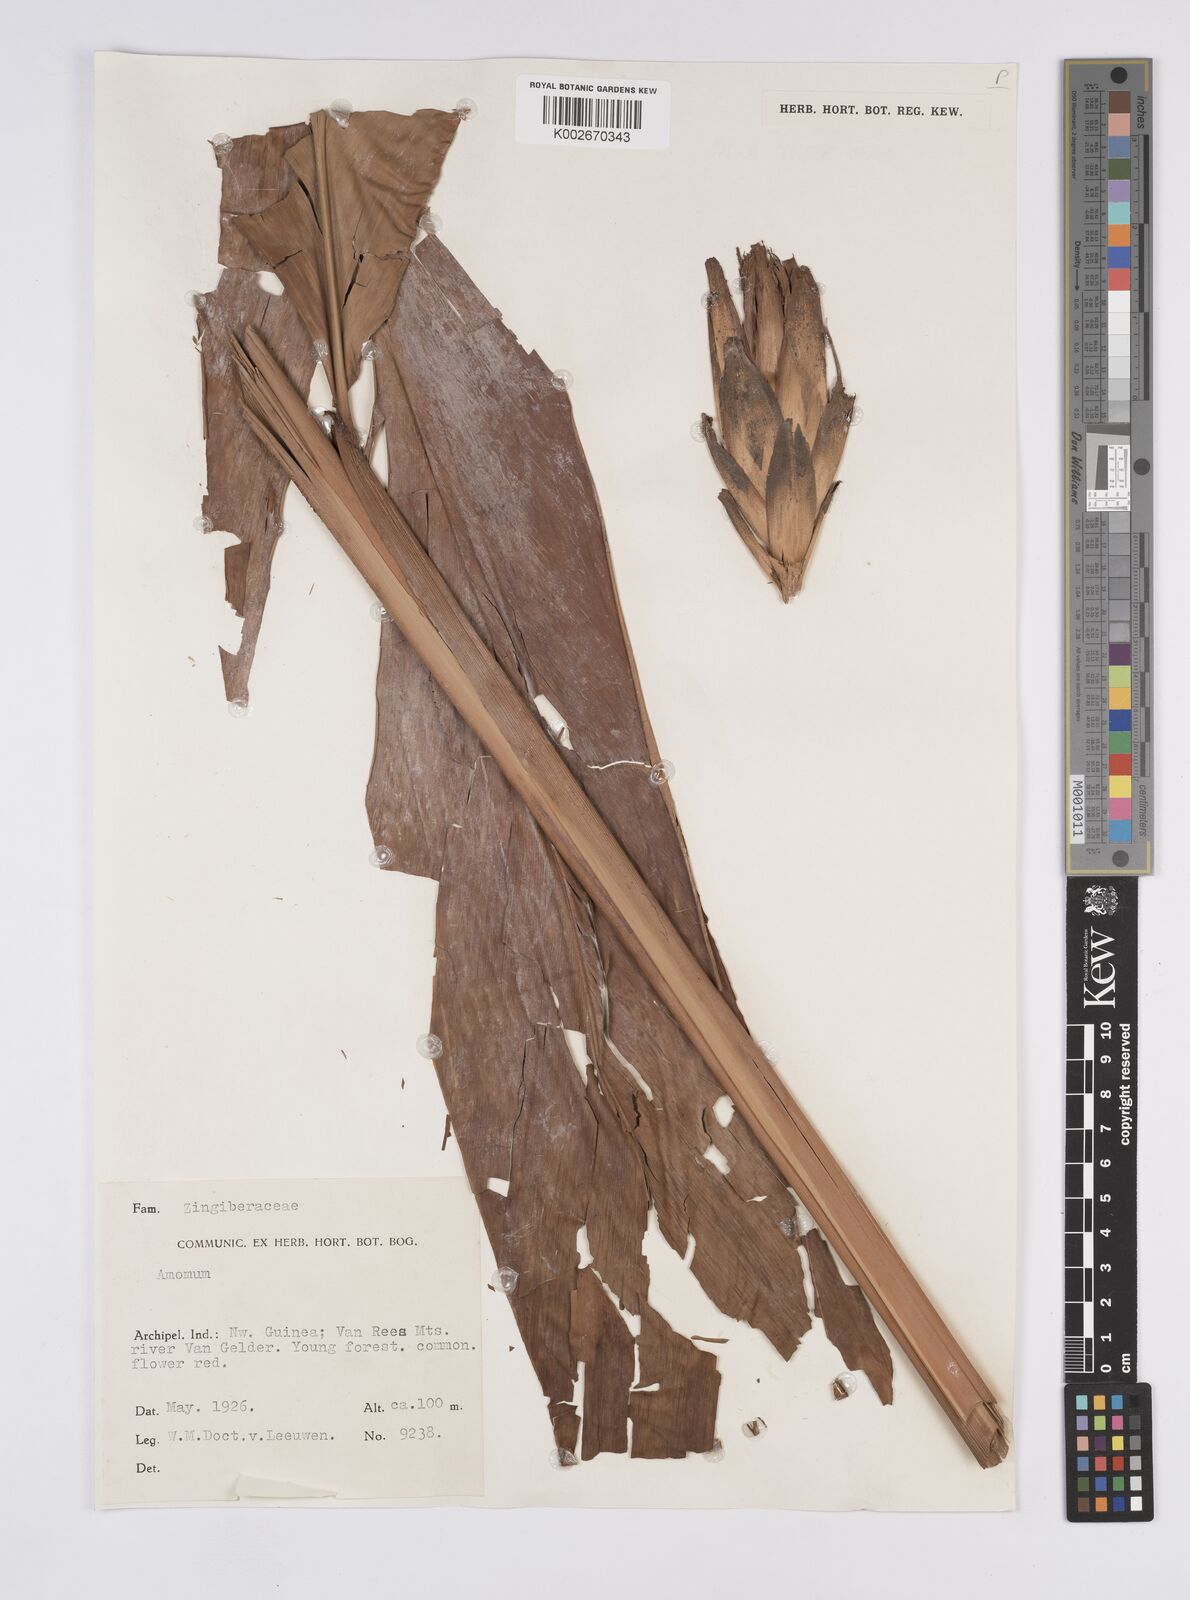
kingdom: Plantae
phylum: Tracheophyta
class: Liliopsida
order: Zingiberales
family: Zingiberaceae
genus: Hornstedtia
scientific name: Hornstedtia
